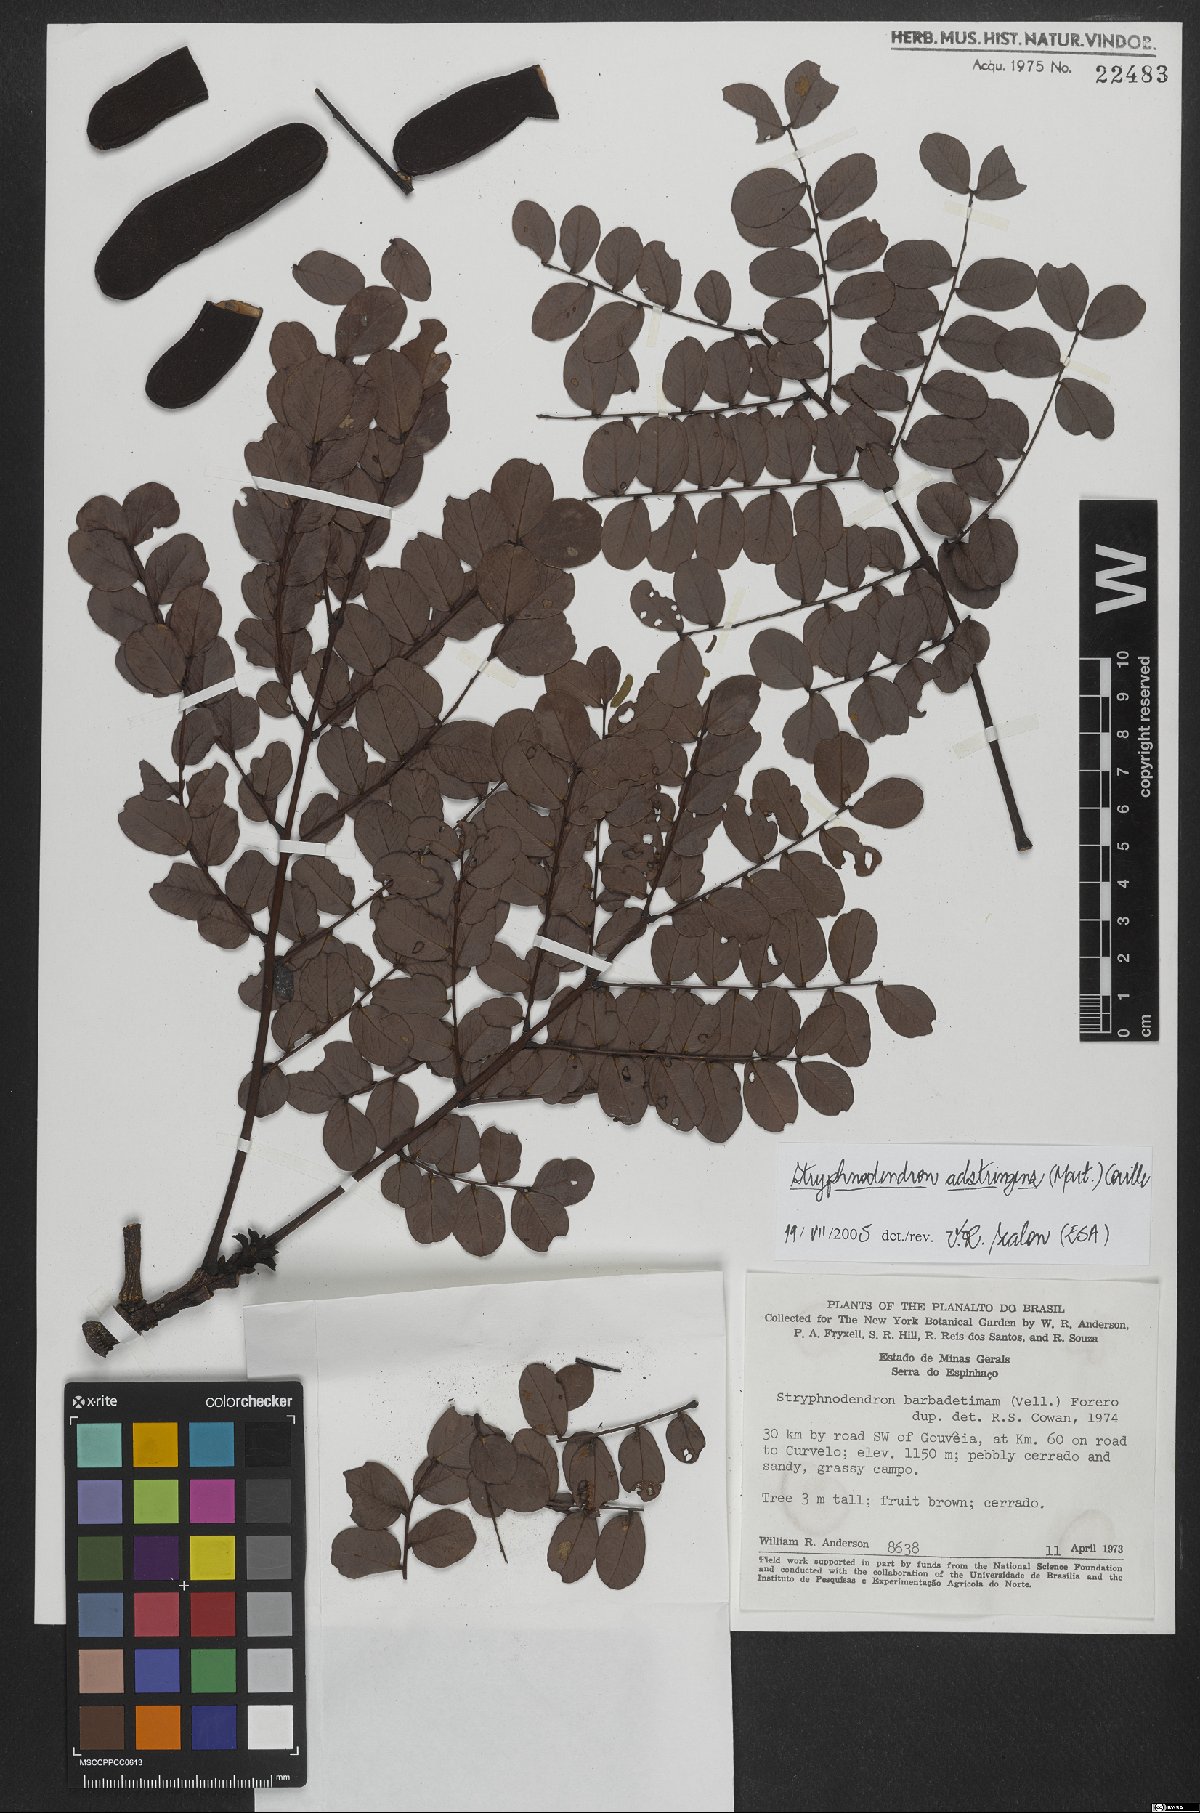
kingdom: Plantae
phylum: Tracheophyta
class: Magnoliopsida
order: Fabales
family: Fabaceae
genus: Stryphnodendron
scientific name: Stryphnodendron adstringens
